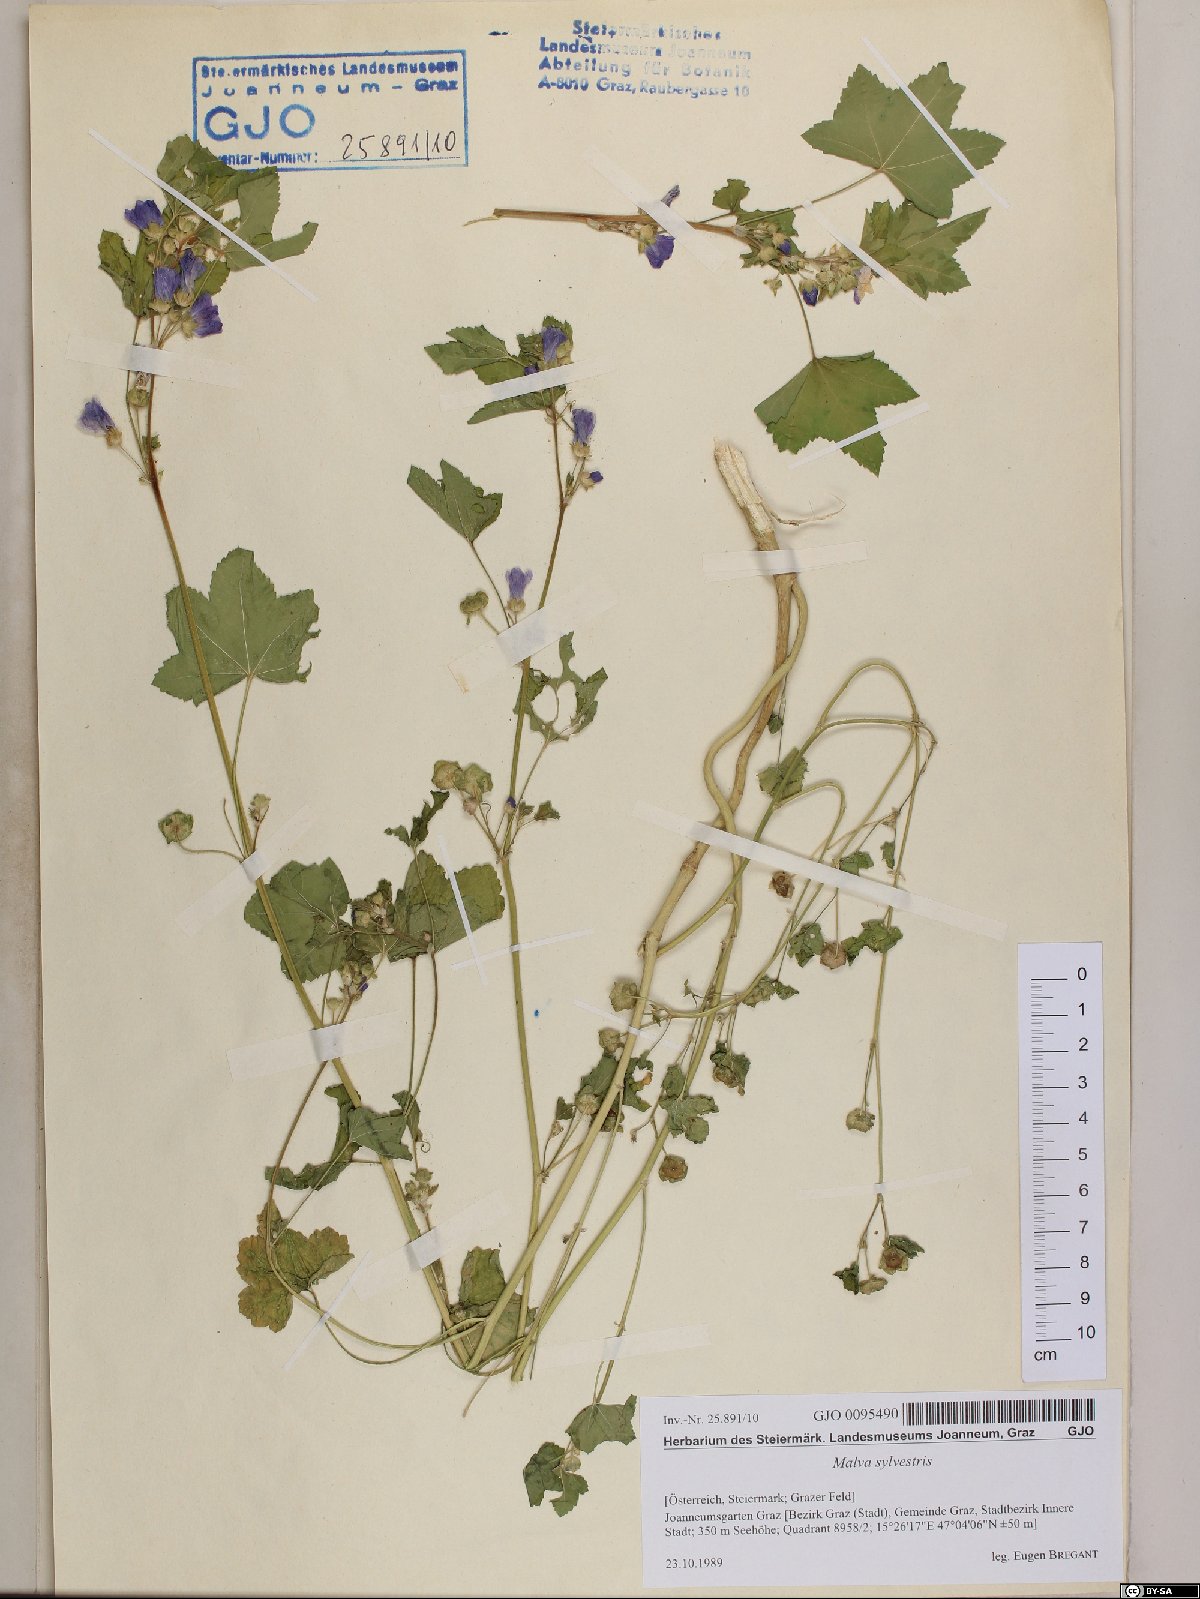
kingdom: Plantae
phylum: Tracheophyta
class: Magnoliopsida
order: Malvales
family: Malvaceae
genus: Malva
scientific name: Malva sylvestris
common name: Common mallow
